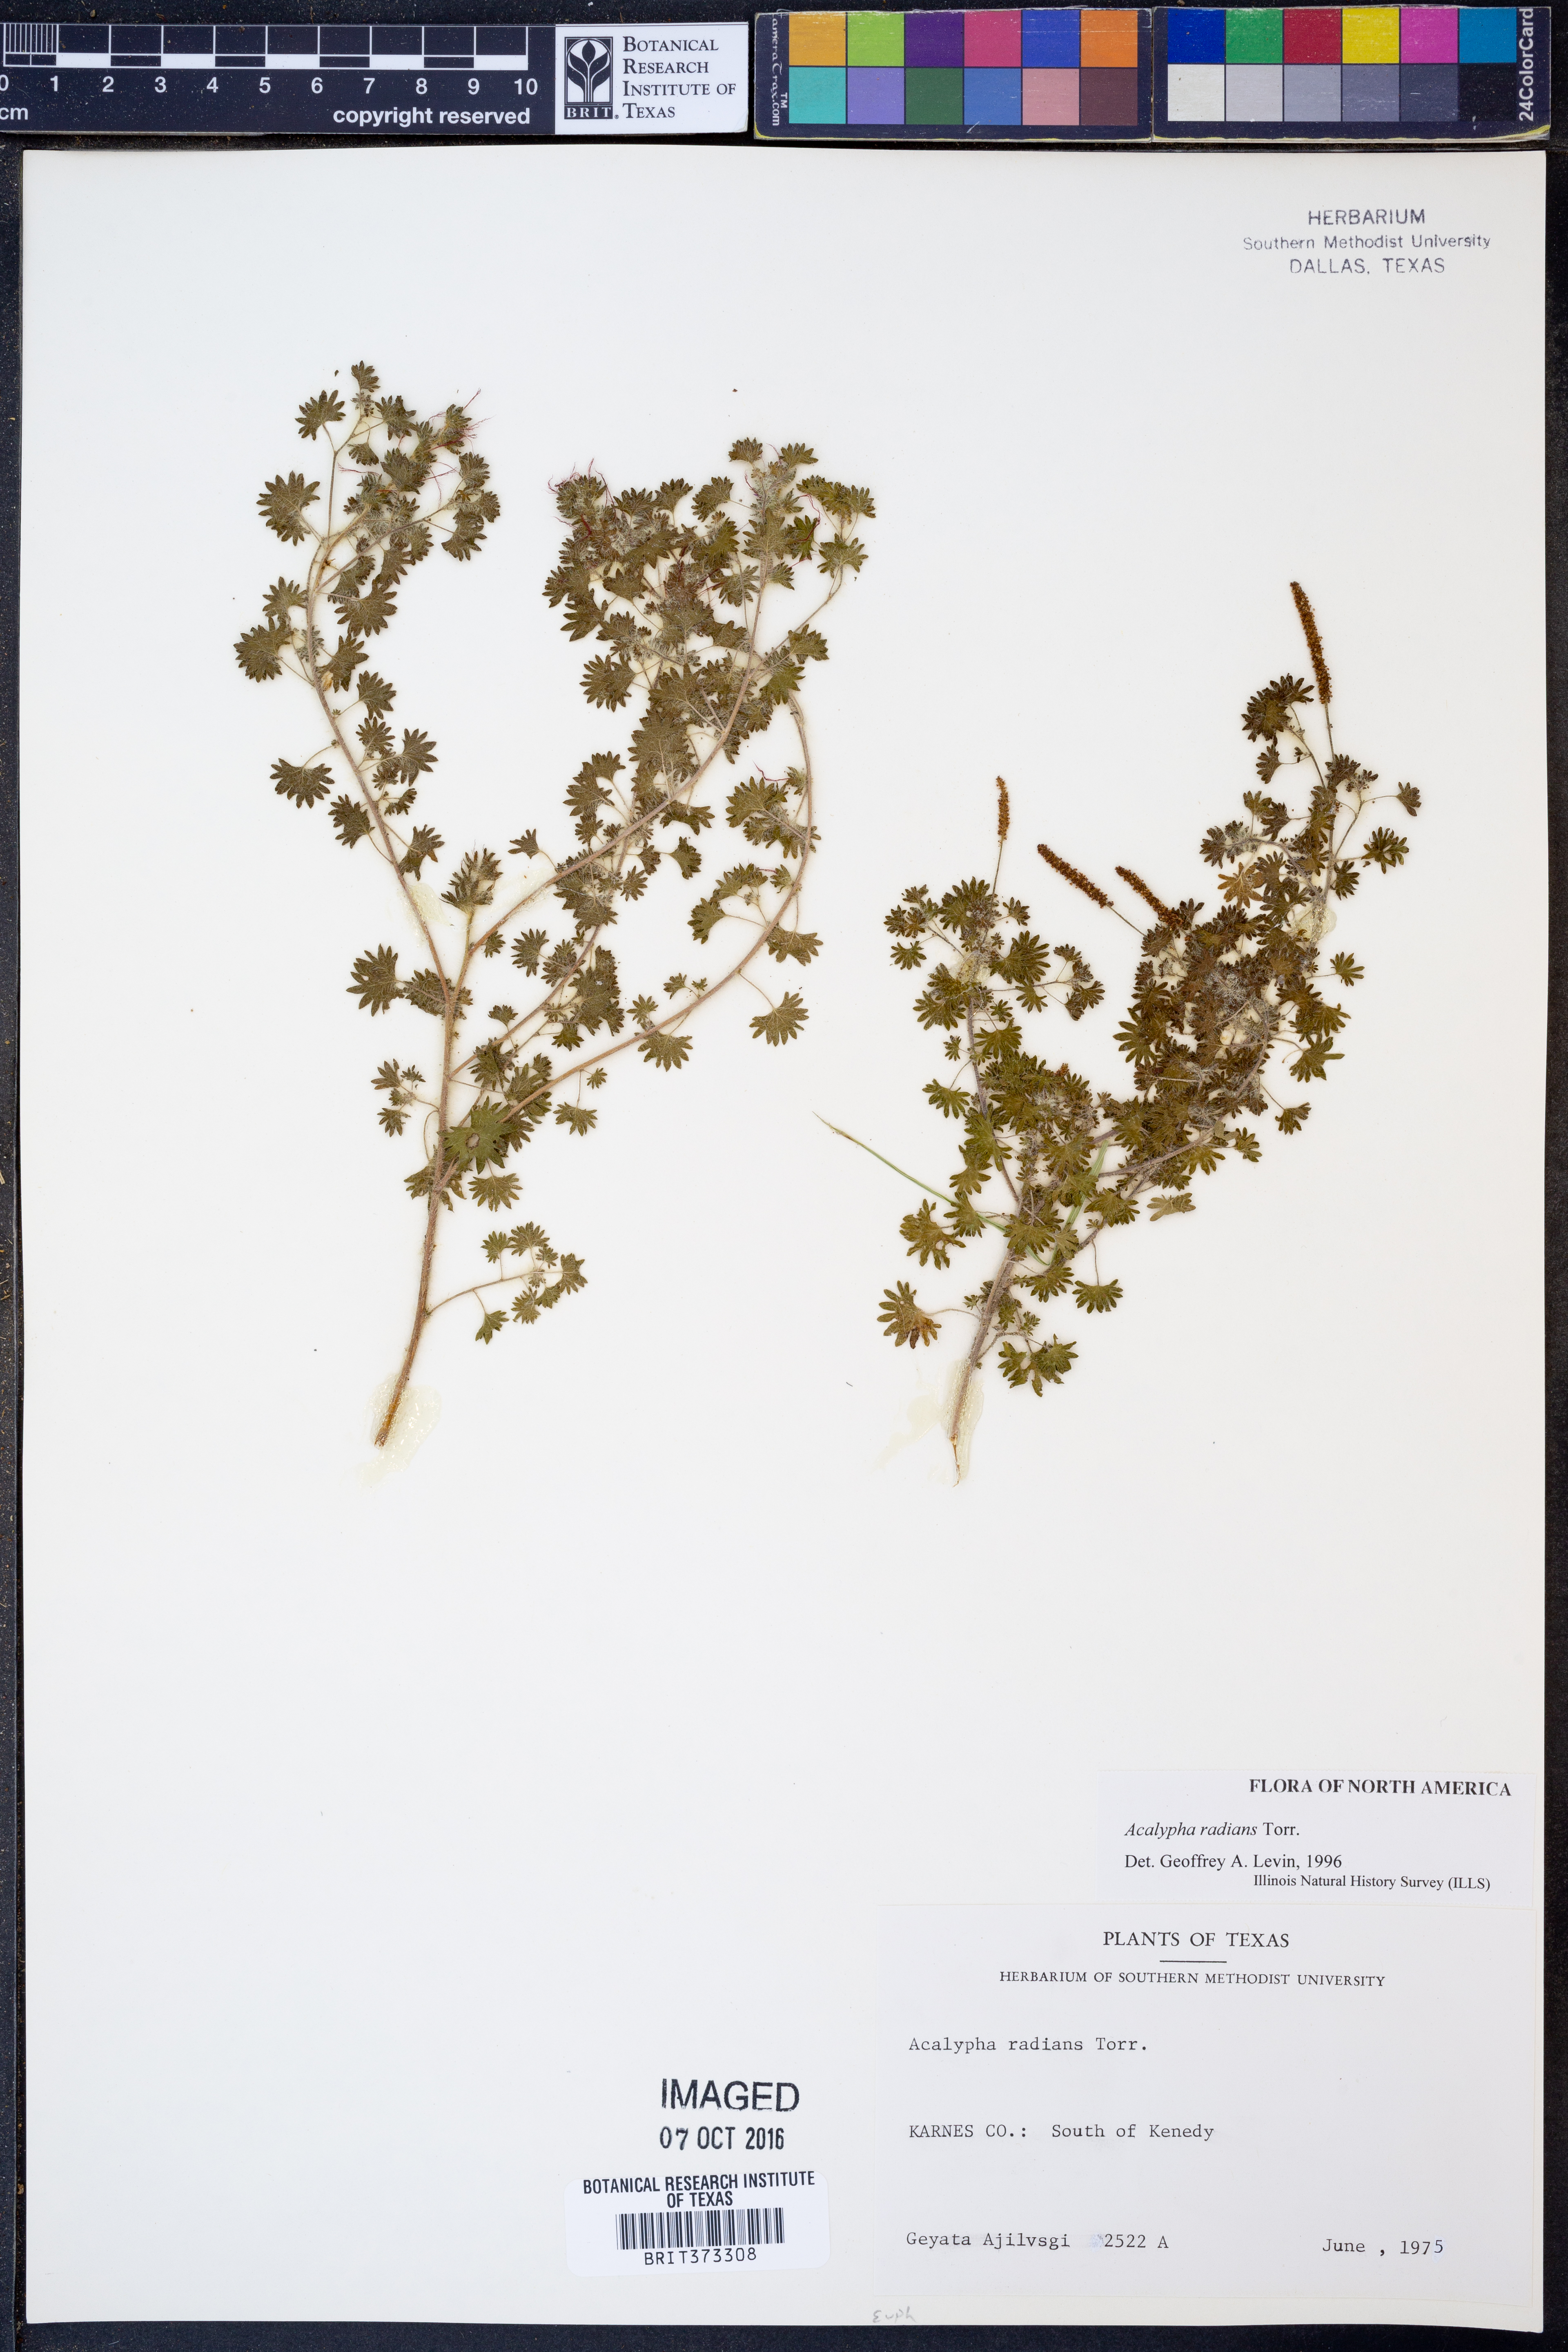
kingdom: Plantae
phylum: Tracheophyta
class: Magnoliopsida
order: Malpighiales
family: Euphorbiaceae
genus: Acalypha
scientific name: Acalypha radians
